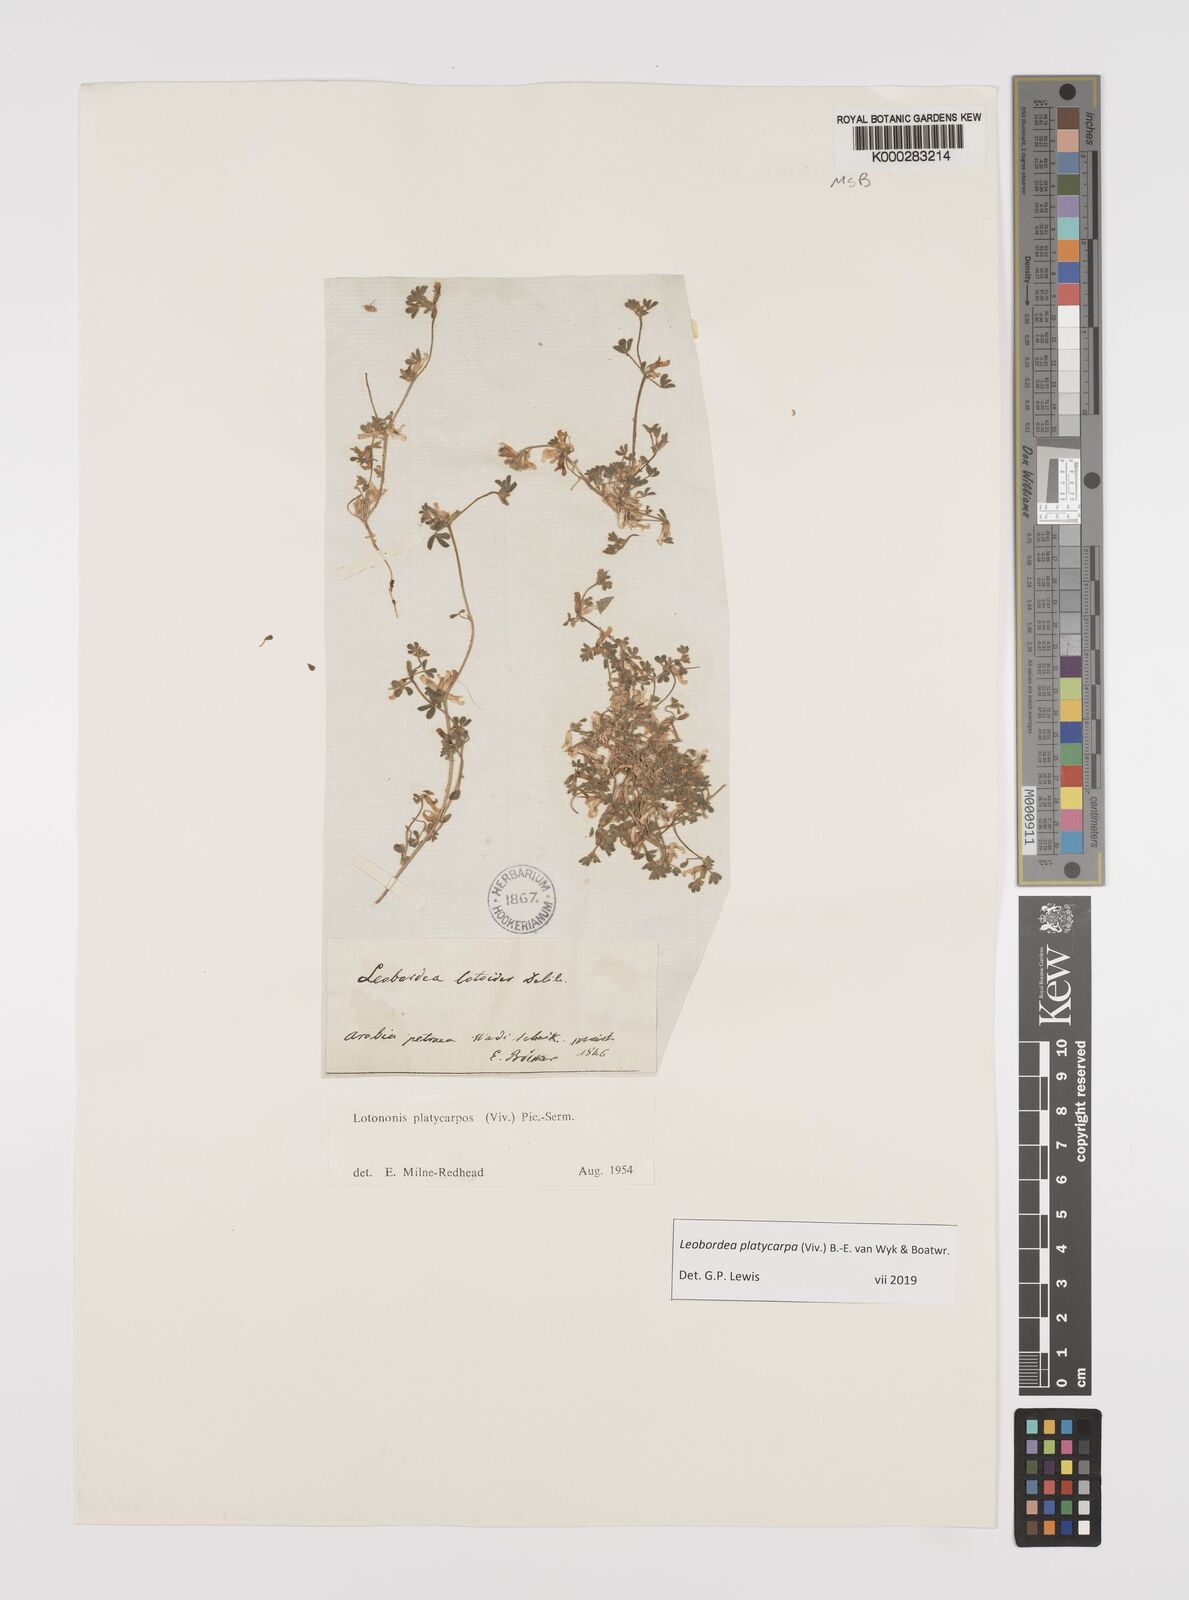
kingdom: Plantae
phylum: Tracheophyta
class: Magnoliopsida
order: Fabales
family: Fabaceae
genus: Leobordea
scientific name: Leobordea platycarpa
